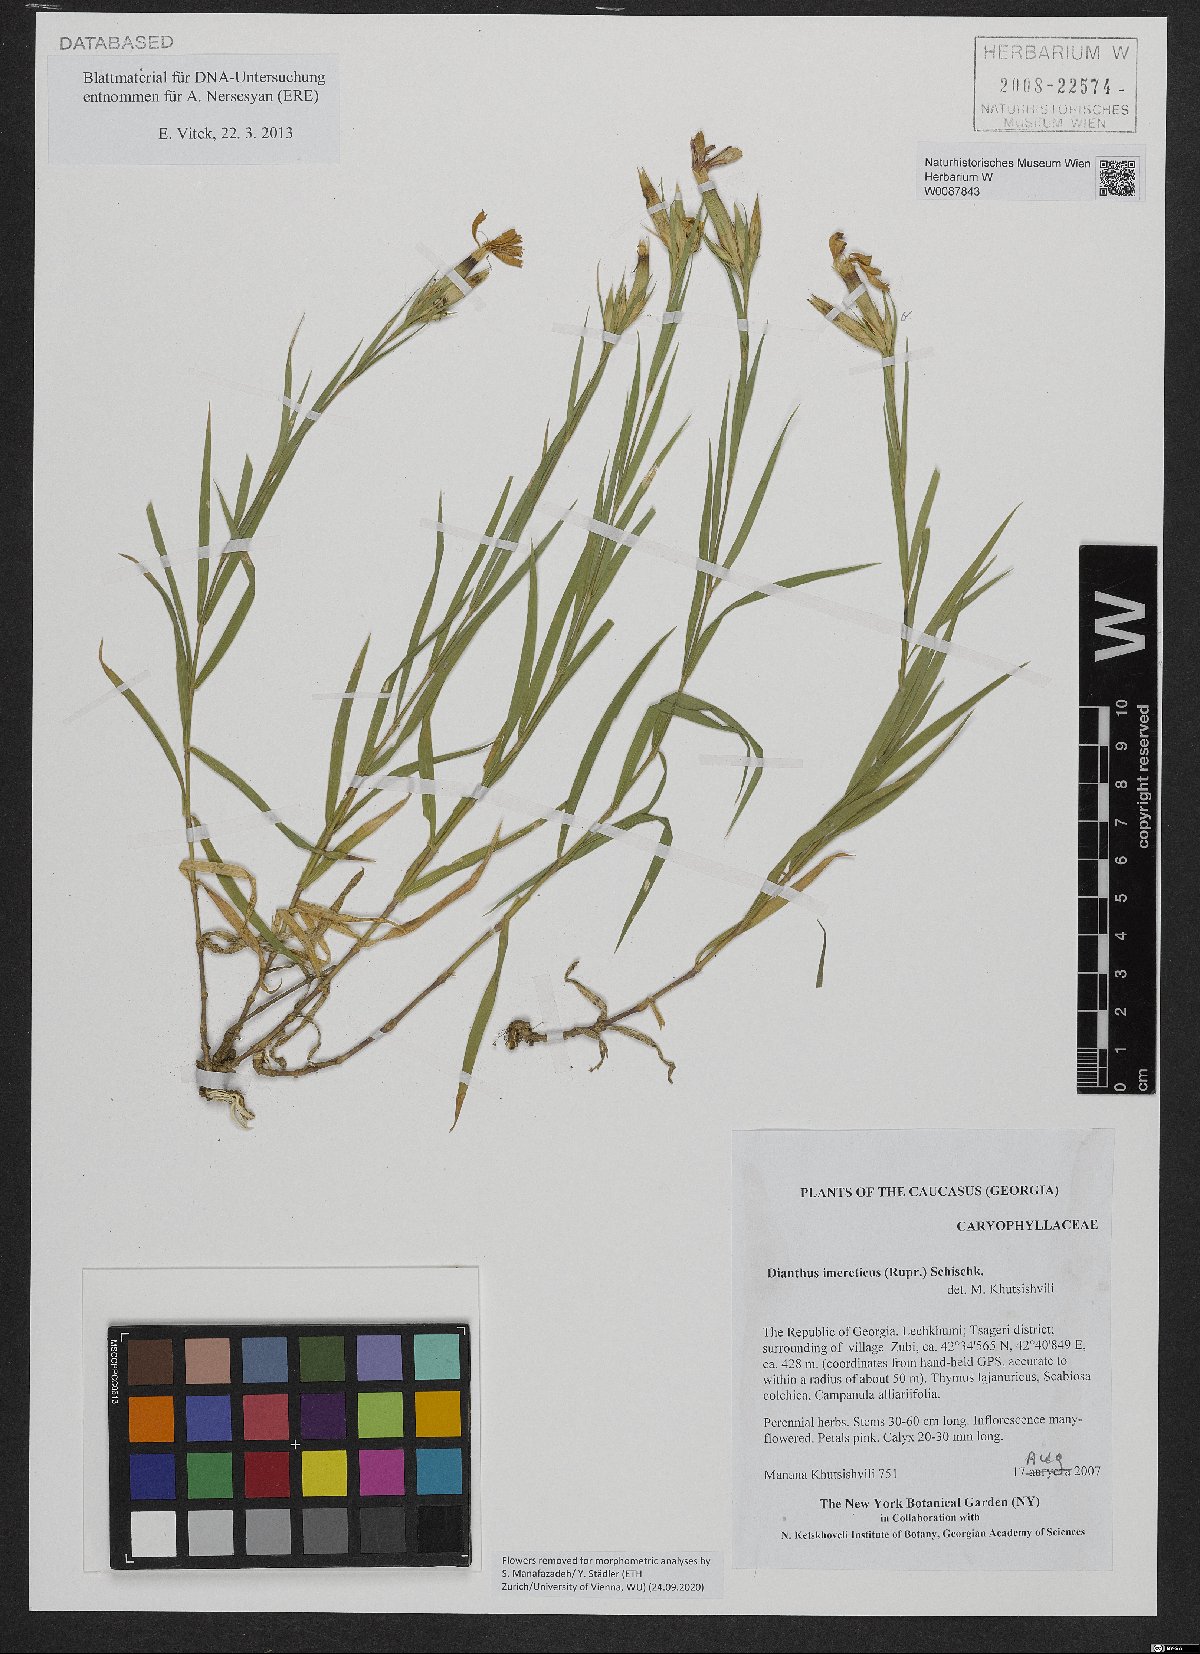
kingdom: Plantae
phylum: Tracheophyta
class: Magnoliopsida
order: Caryophyllales
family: Caryophyllaceae
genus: Dianthus
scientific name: Dianthus imereticus
